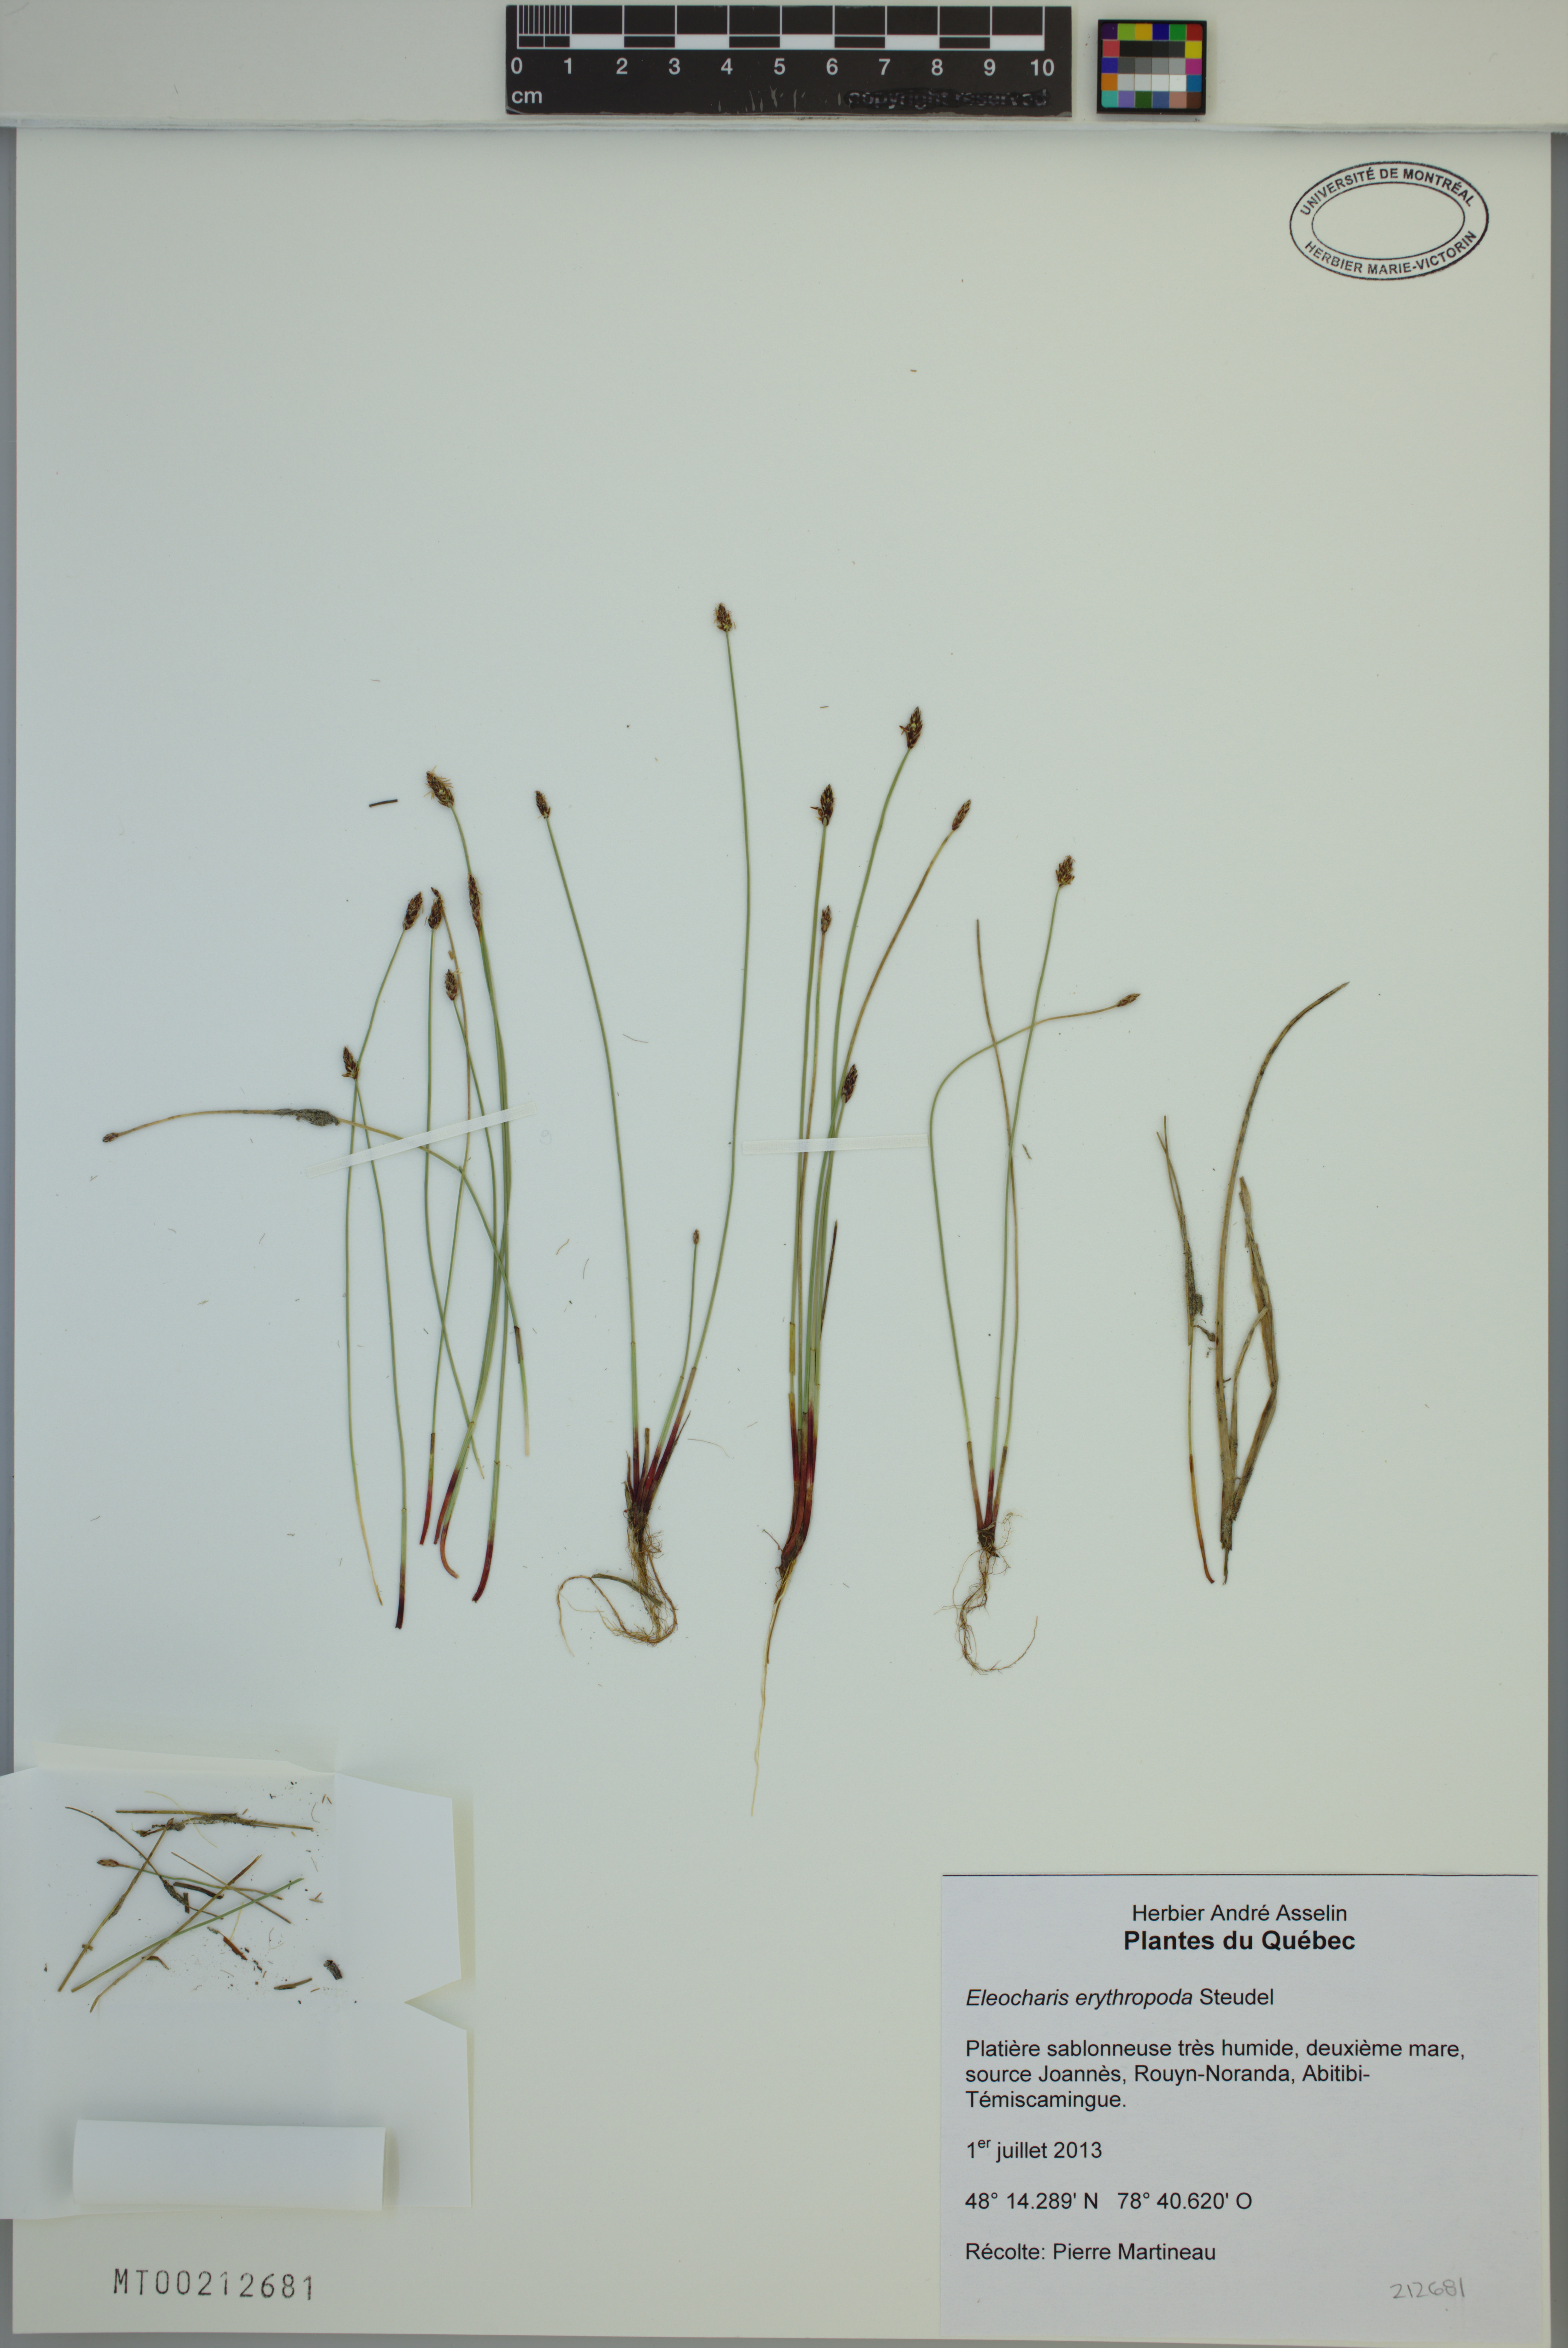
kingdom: Plantae
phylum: Tracheophyta
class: Liliopsida
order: Poales
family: Cyperaceae
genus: Eleocharis
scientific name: Eleocharis erythropoda
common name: Bald spikerush
